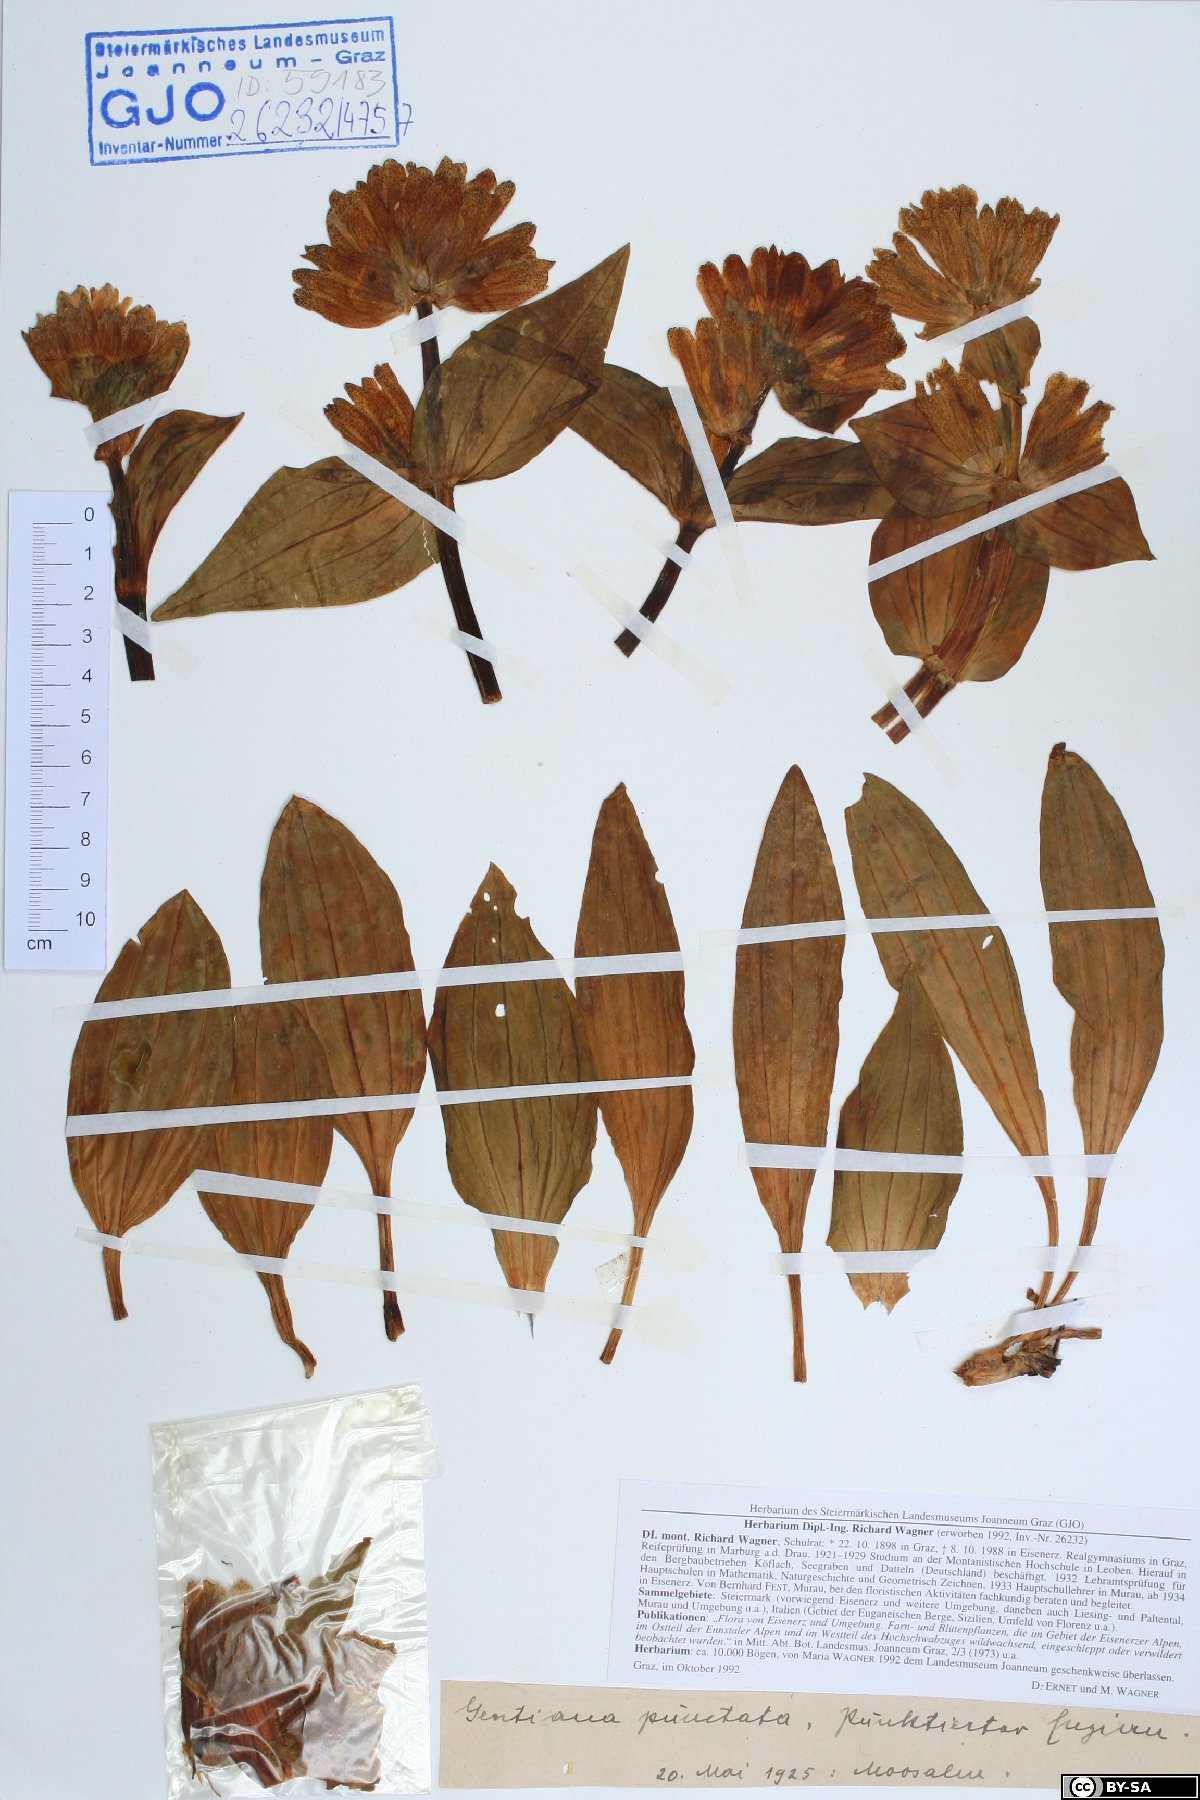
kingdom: Plantae
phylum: Tracheophyta
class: Magnoliopsida
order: Gentianales
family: Gentianaceae
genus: Gentiana
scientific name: Gentiana punctata
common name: Spotted gentian
